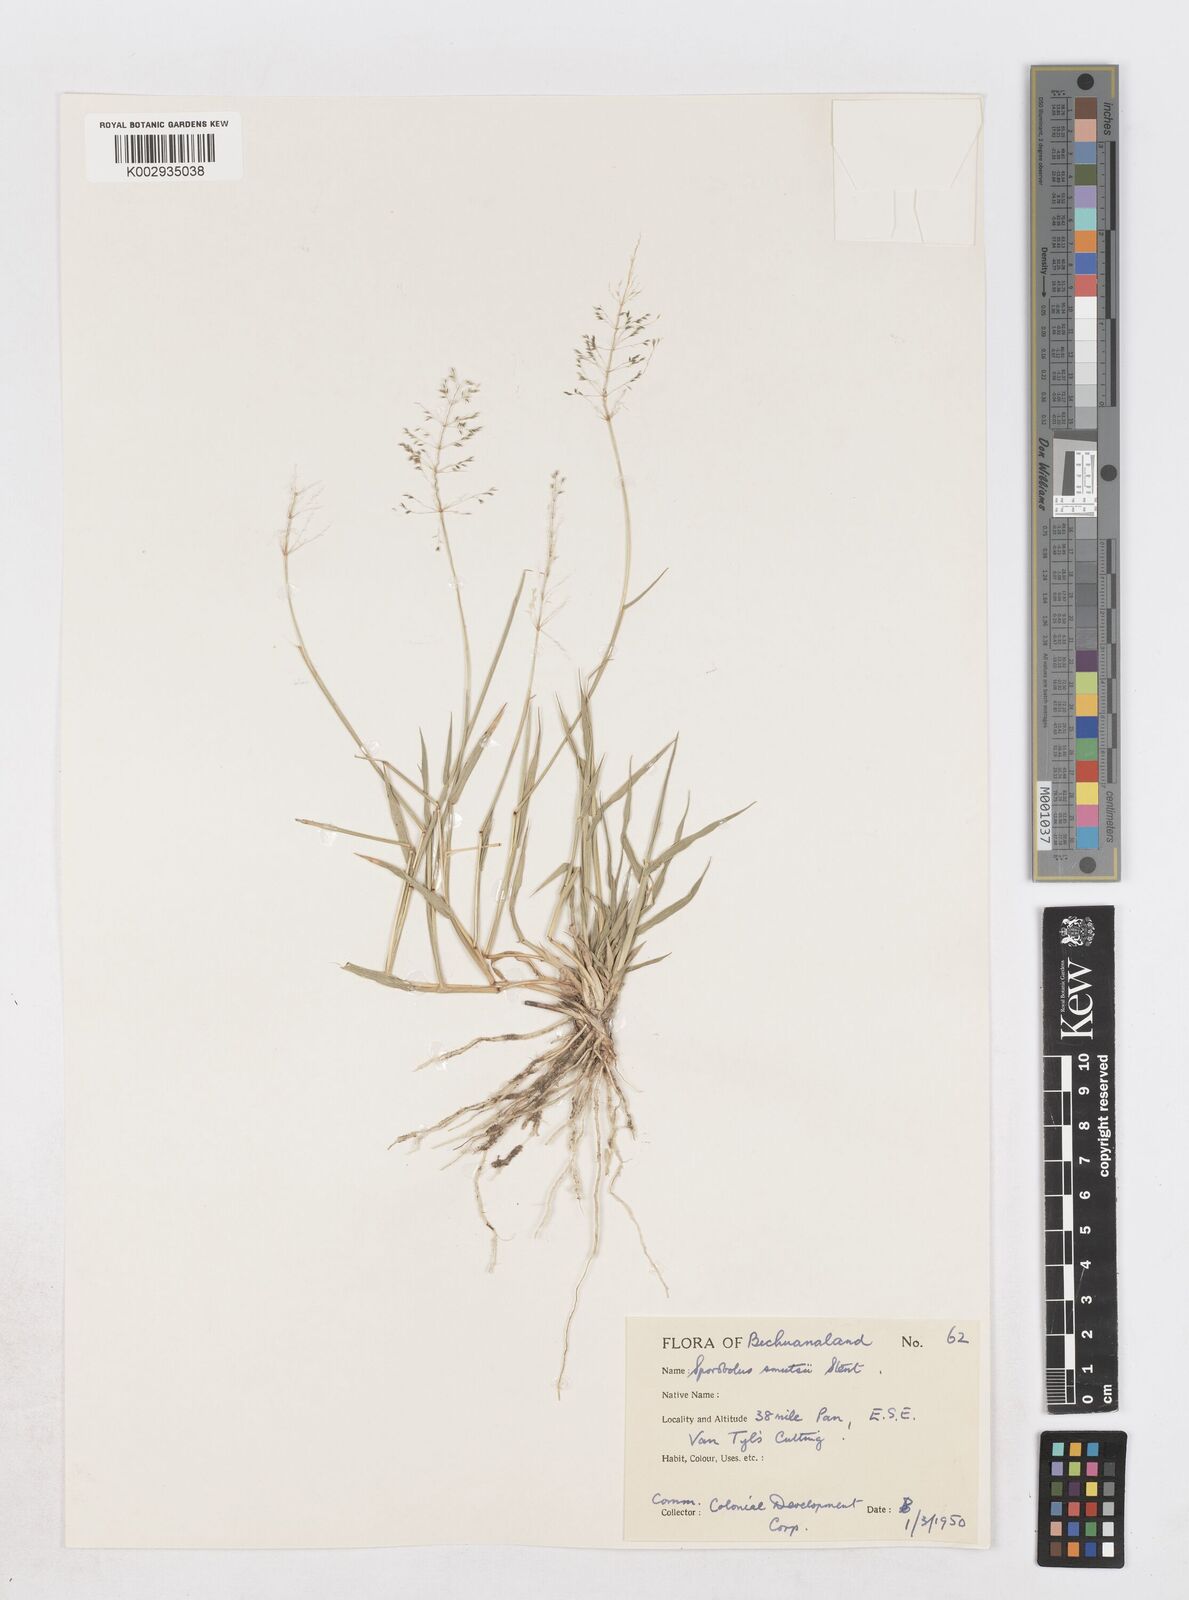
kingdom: Plantae
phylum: Tracheophyta
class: Liliopsida
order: Poales
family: Poaceae
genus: Sporobolus
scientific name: Sporobolus ioclados
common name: Pan dropseed
